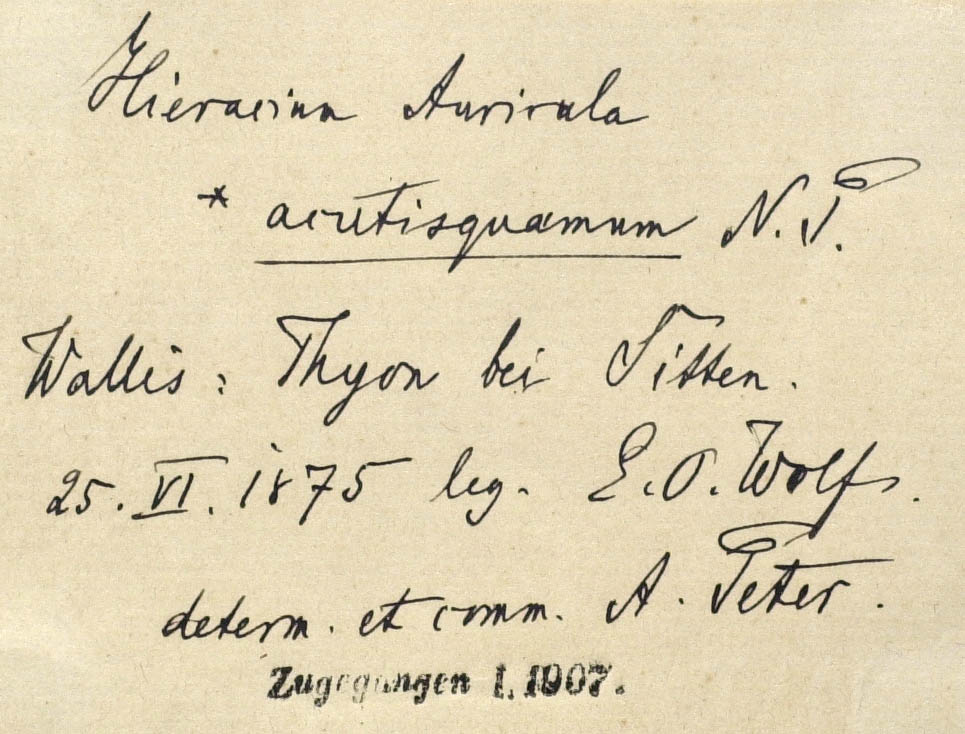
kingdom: Plantae
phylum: Tracheophyta
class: Magnoliopsida
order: Asterales
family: Asteraceae
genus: Pilosella
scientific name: Pilosella lactucella
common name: Glaucous fox-and-cubs
